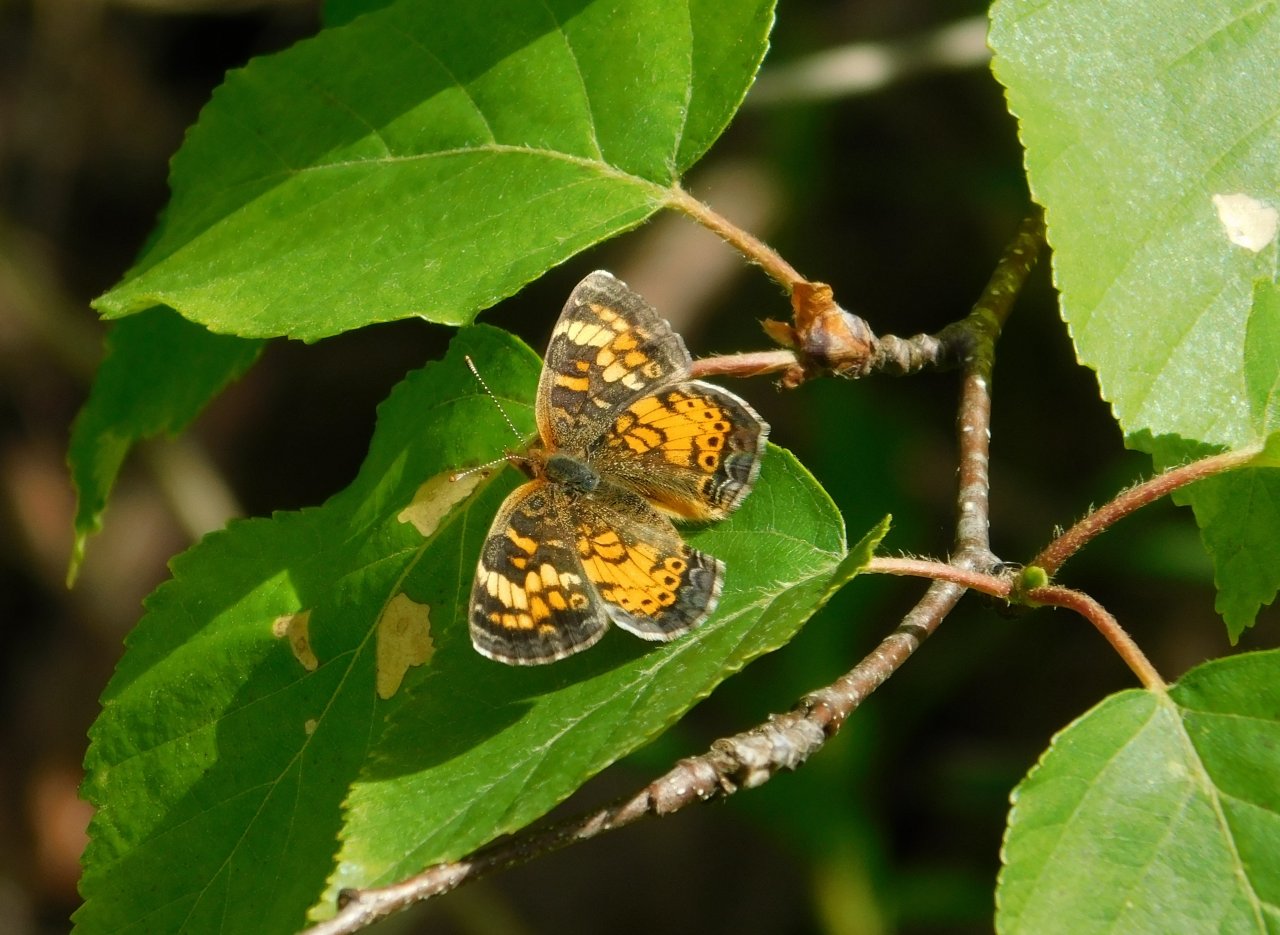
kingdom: Animalia
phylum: Arthropoda
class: Insecta
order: Lepidoptera
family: Nymphalidae
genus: Phyciodes
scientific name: Phyciodes tharos
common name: Northern Crescent
